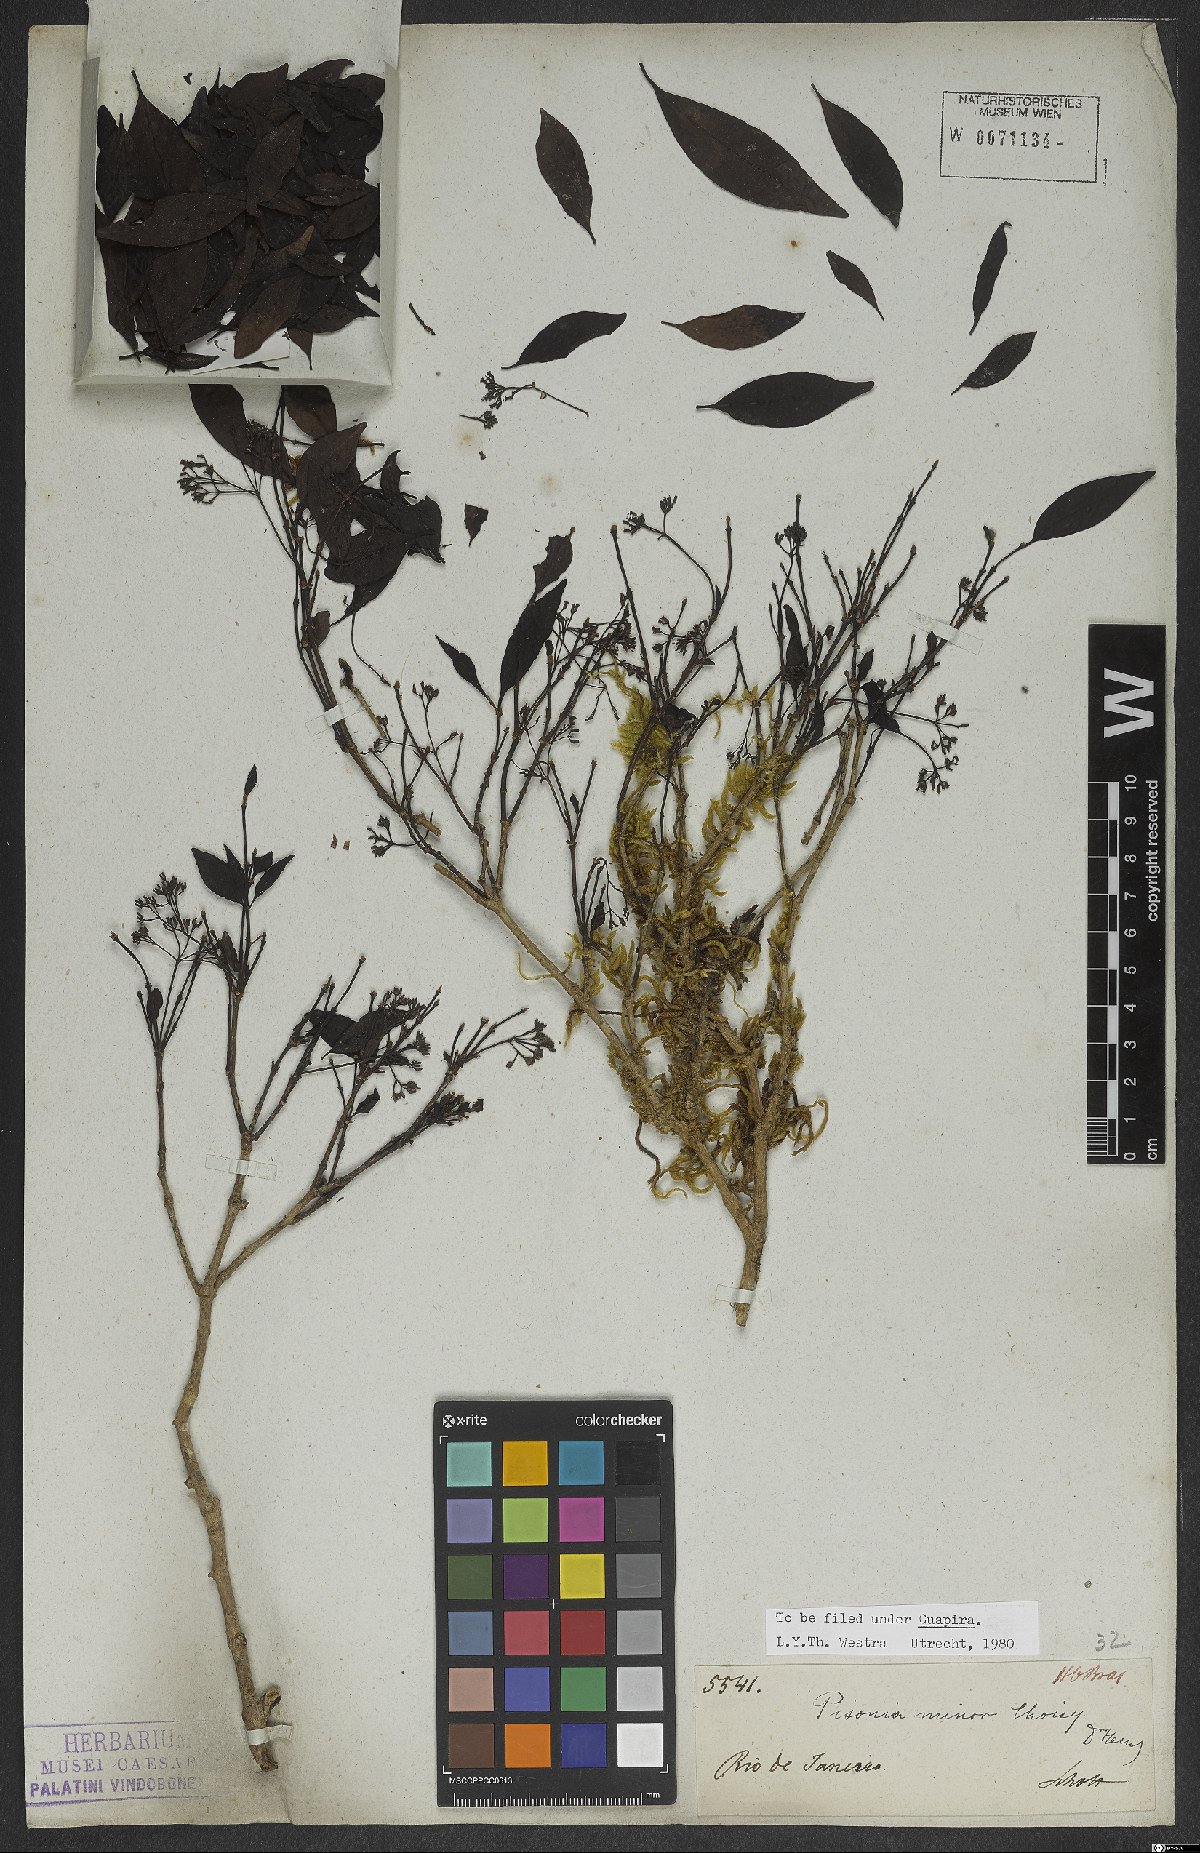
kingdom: Plantae
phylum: Tracheophyta
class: Magnoliopsida
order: Caryophyllales
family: Nyctaginaceae
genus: Pisonia
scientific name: Pisonia aculeata
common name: Cockspur vine
